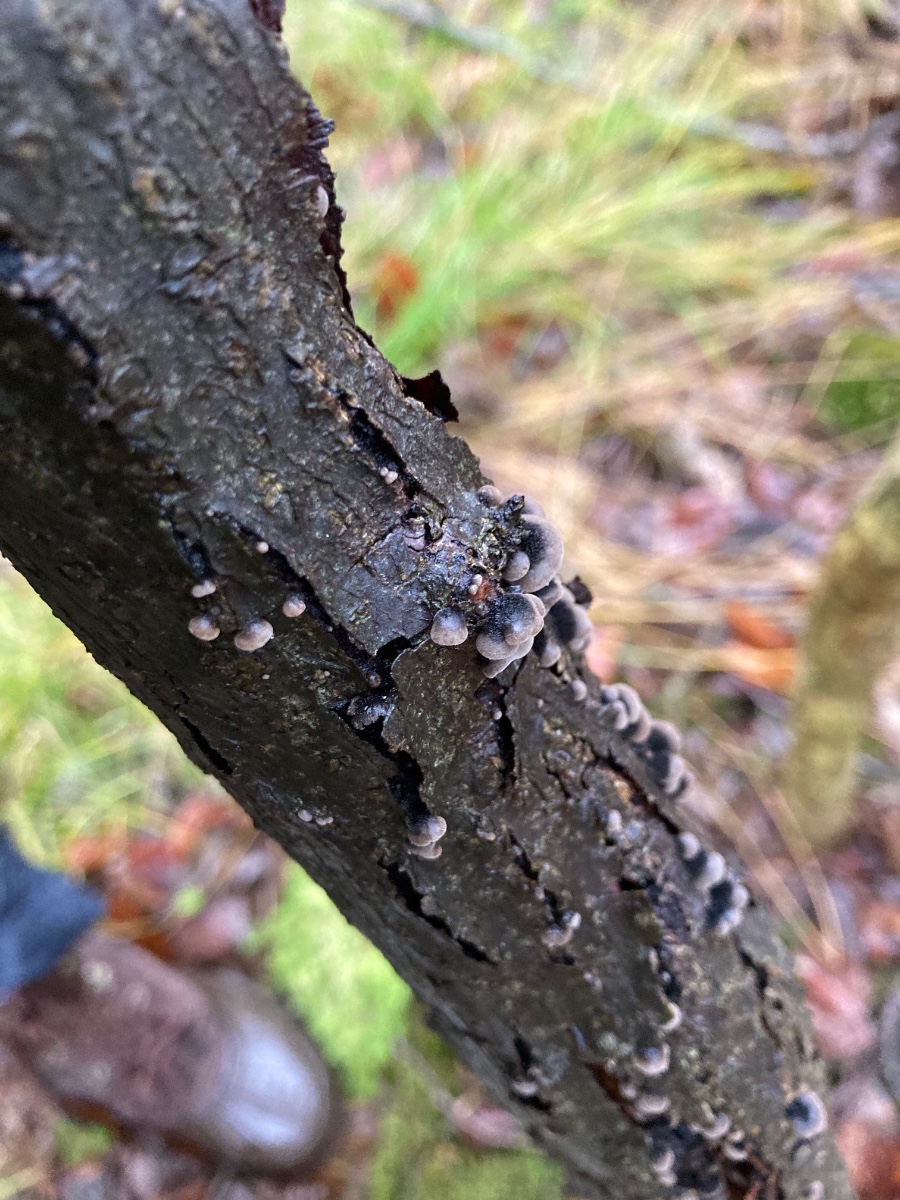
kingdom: Fungi
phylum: Basidiomycota
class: Agaricomycetes
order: Agaricales
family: Pleurotaceae
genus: Resupinatus
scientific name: Resupinatus trichotis
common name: mørkfiltet barkhat
